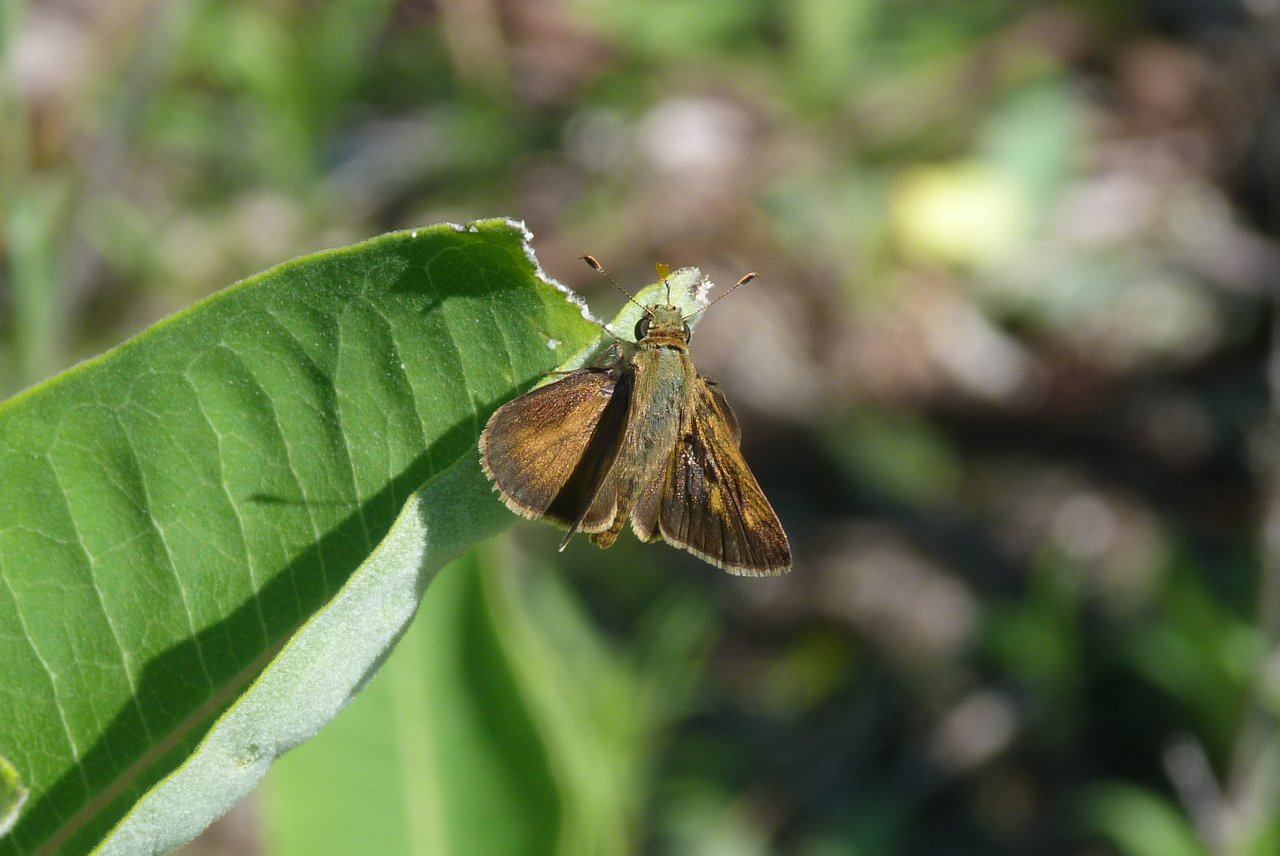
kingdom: Animalia
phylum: Arthropoda
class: Insecta
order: Lepidoptera
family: Hesperiidae
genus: Polites
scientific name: Polites egeremet
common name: Northern Broken-Dash
